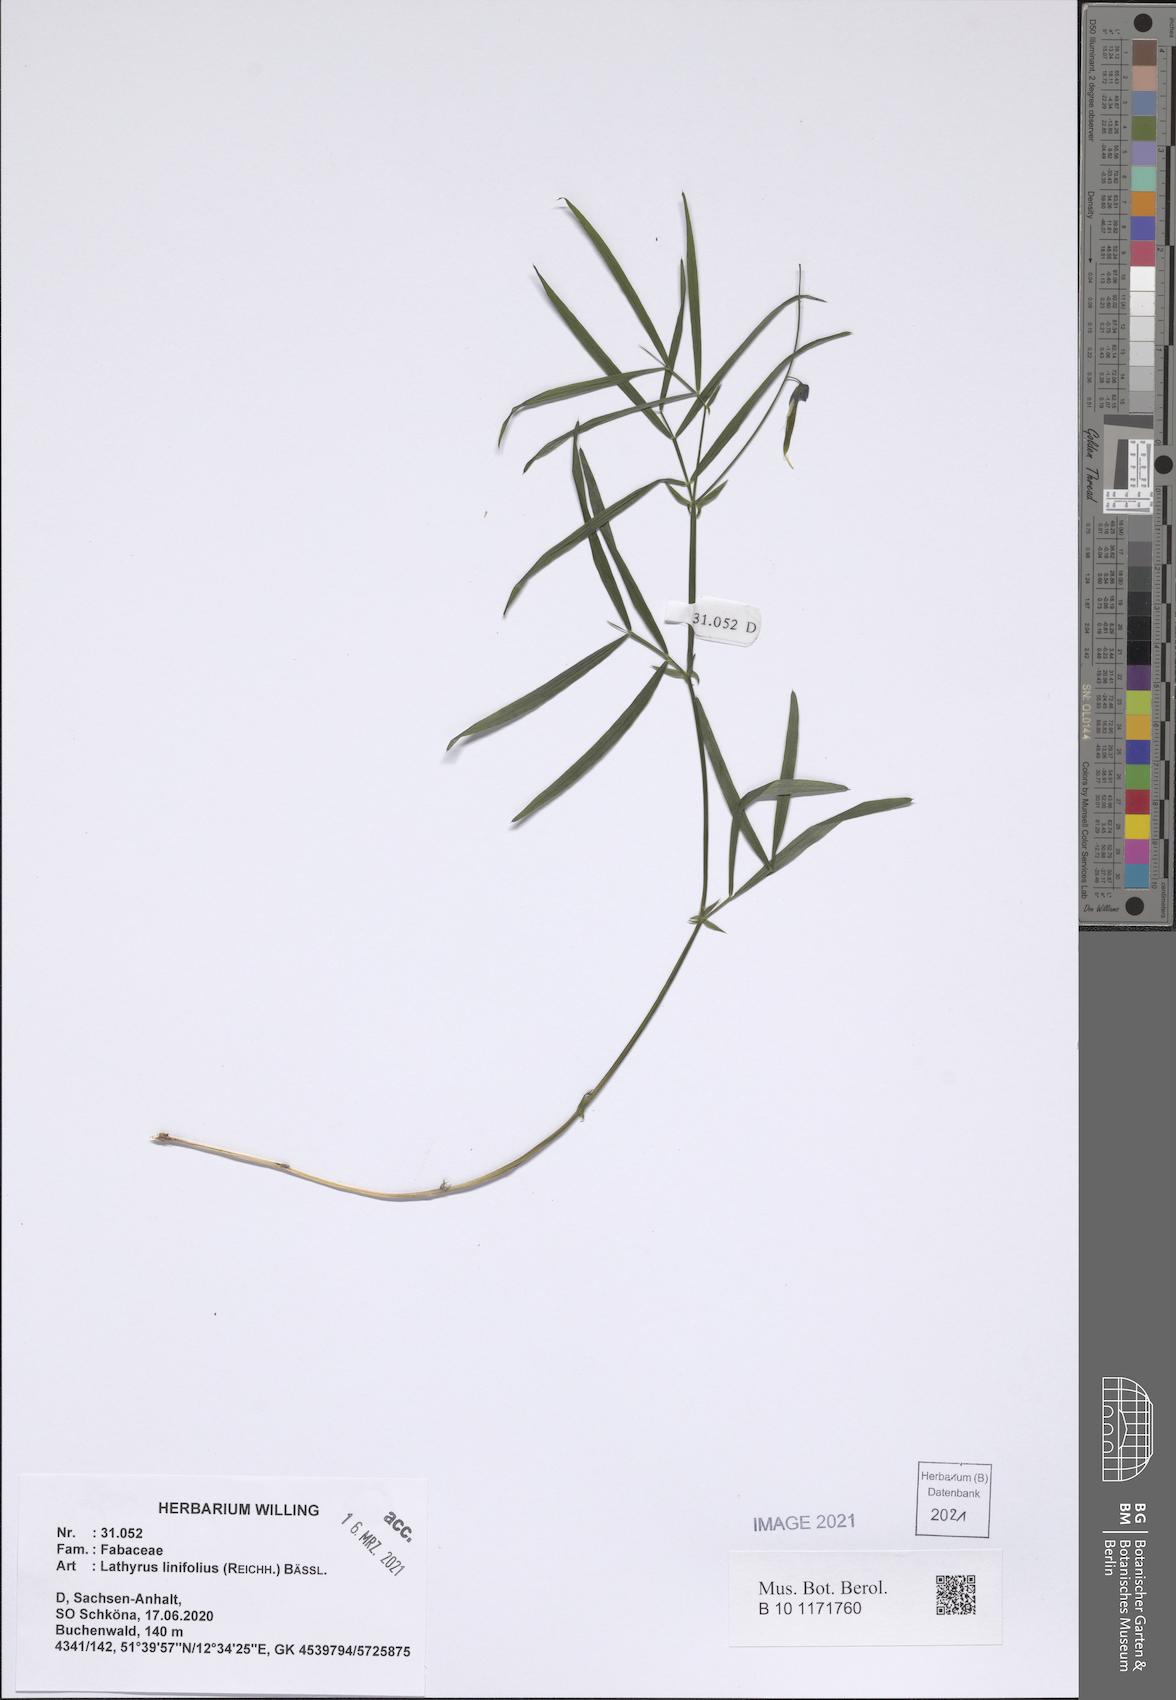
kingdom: Plantae
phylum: Tracheophyta
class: Magnoliopsida
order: Fabales
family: Fabaceae
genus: Lathyrus
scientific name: Lathyrus linifolius
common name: Bitter-vetch
